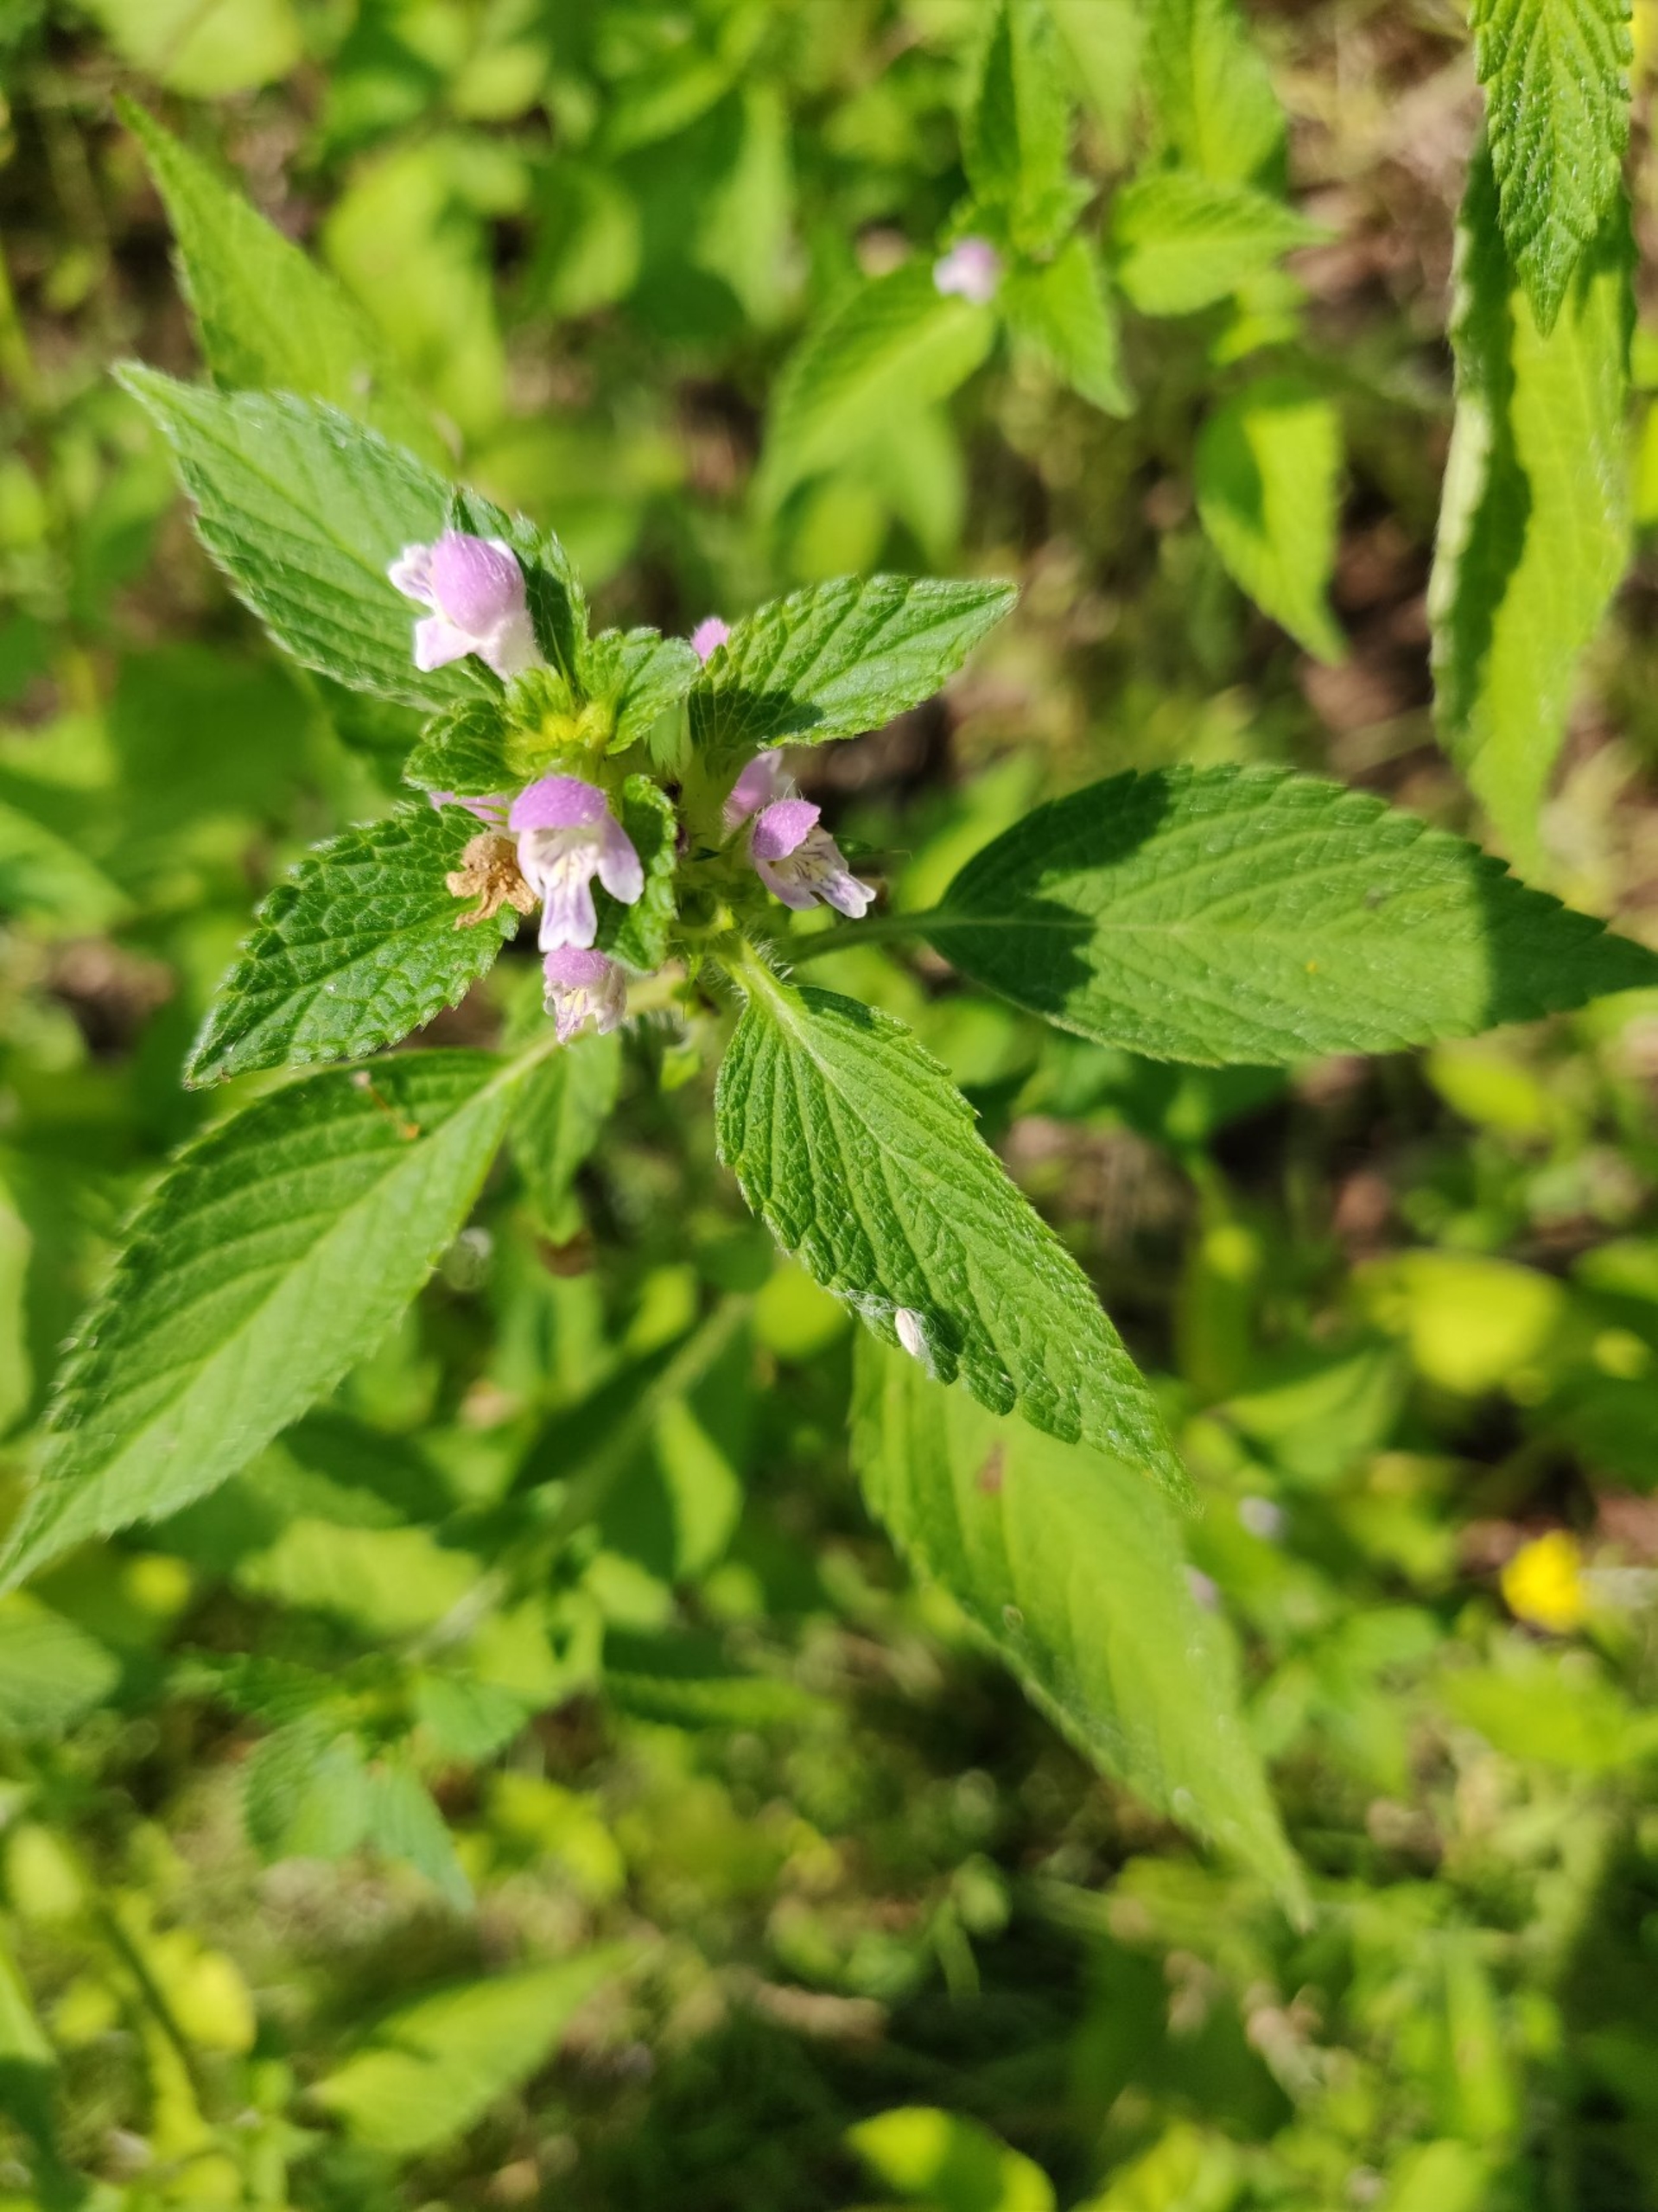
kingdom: Plantae
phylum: Tracheophyta
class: Magnoliopsida
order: Lamiales
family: Lamiaceae
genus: Galeopsis
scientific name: Galeopsis bifida
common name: Skov-hanekro
